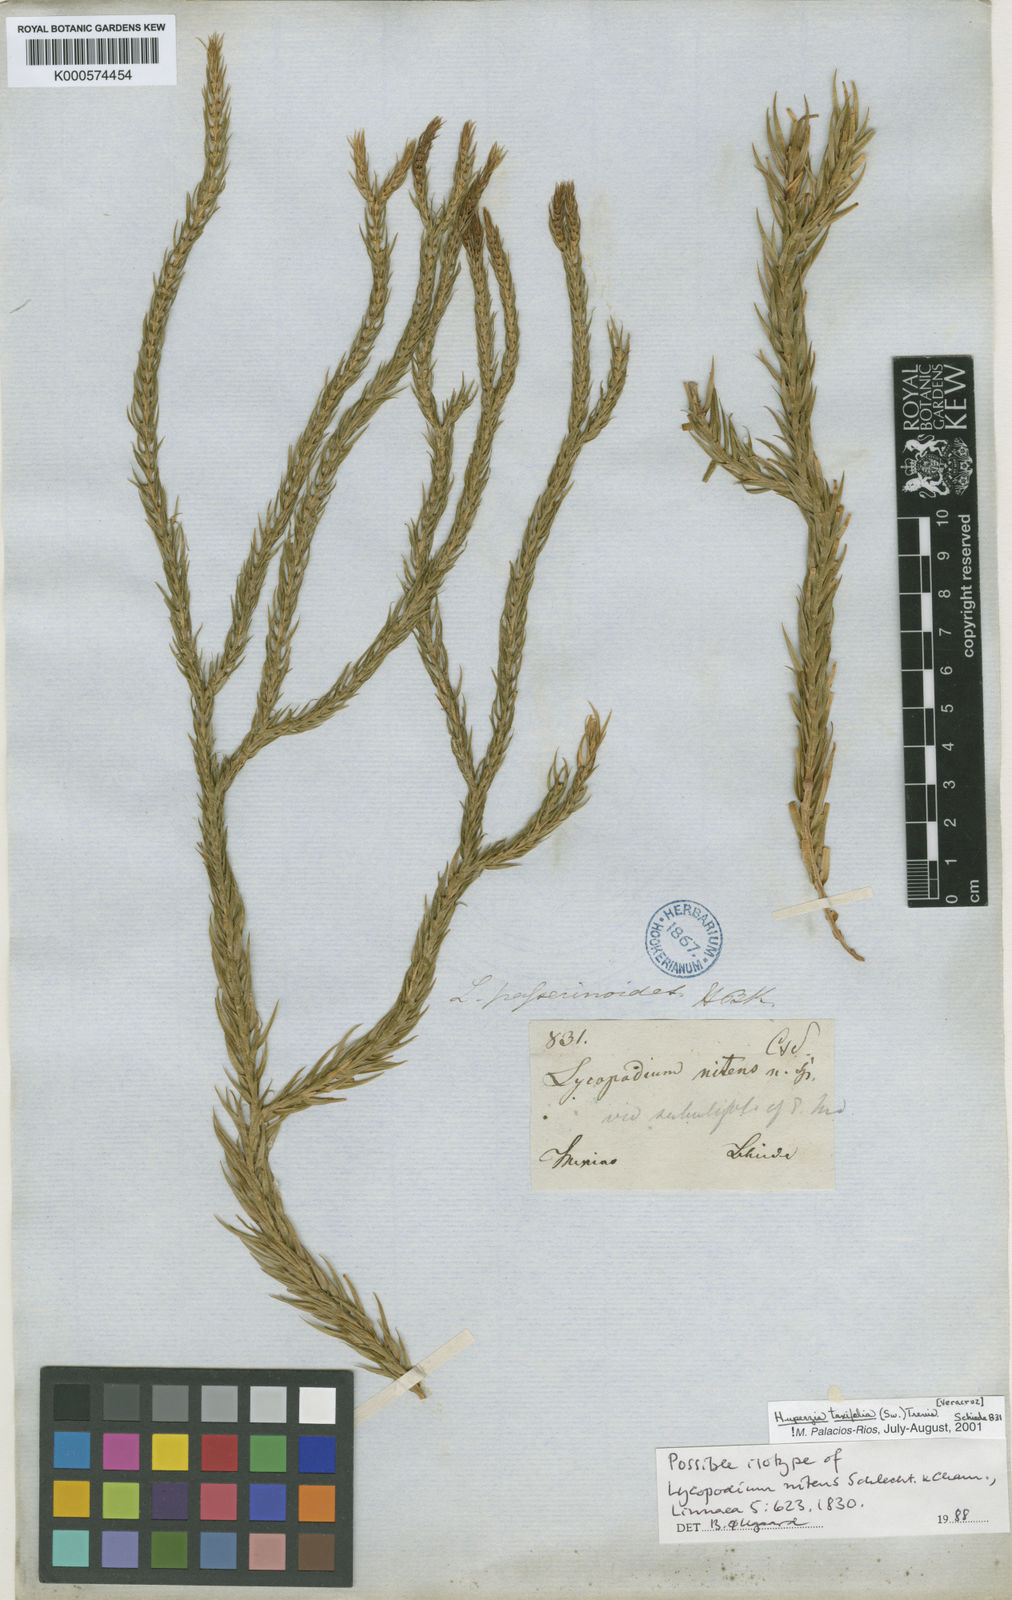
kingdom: Plantae
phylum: Tracheophyta
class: Lycopodiopsida
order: Lycopodiales
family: Lycopodiaceae
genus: Phlegmariurus
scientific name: Phlegmariurus taxifolius
